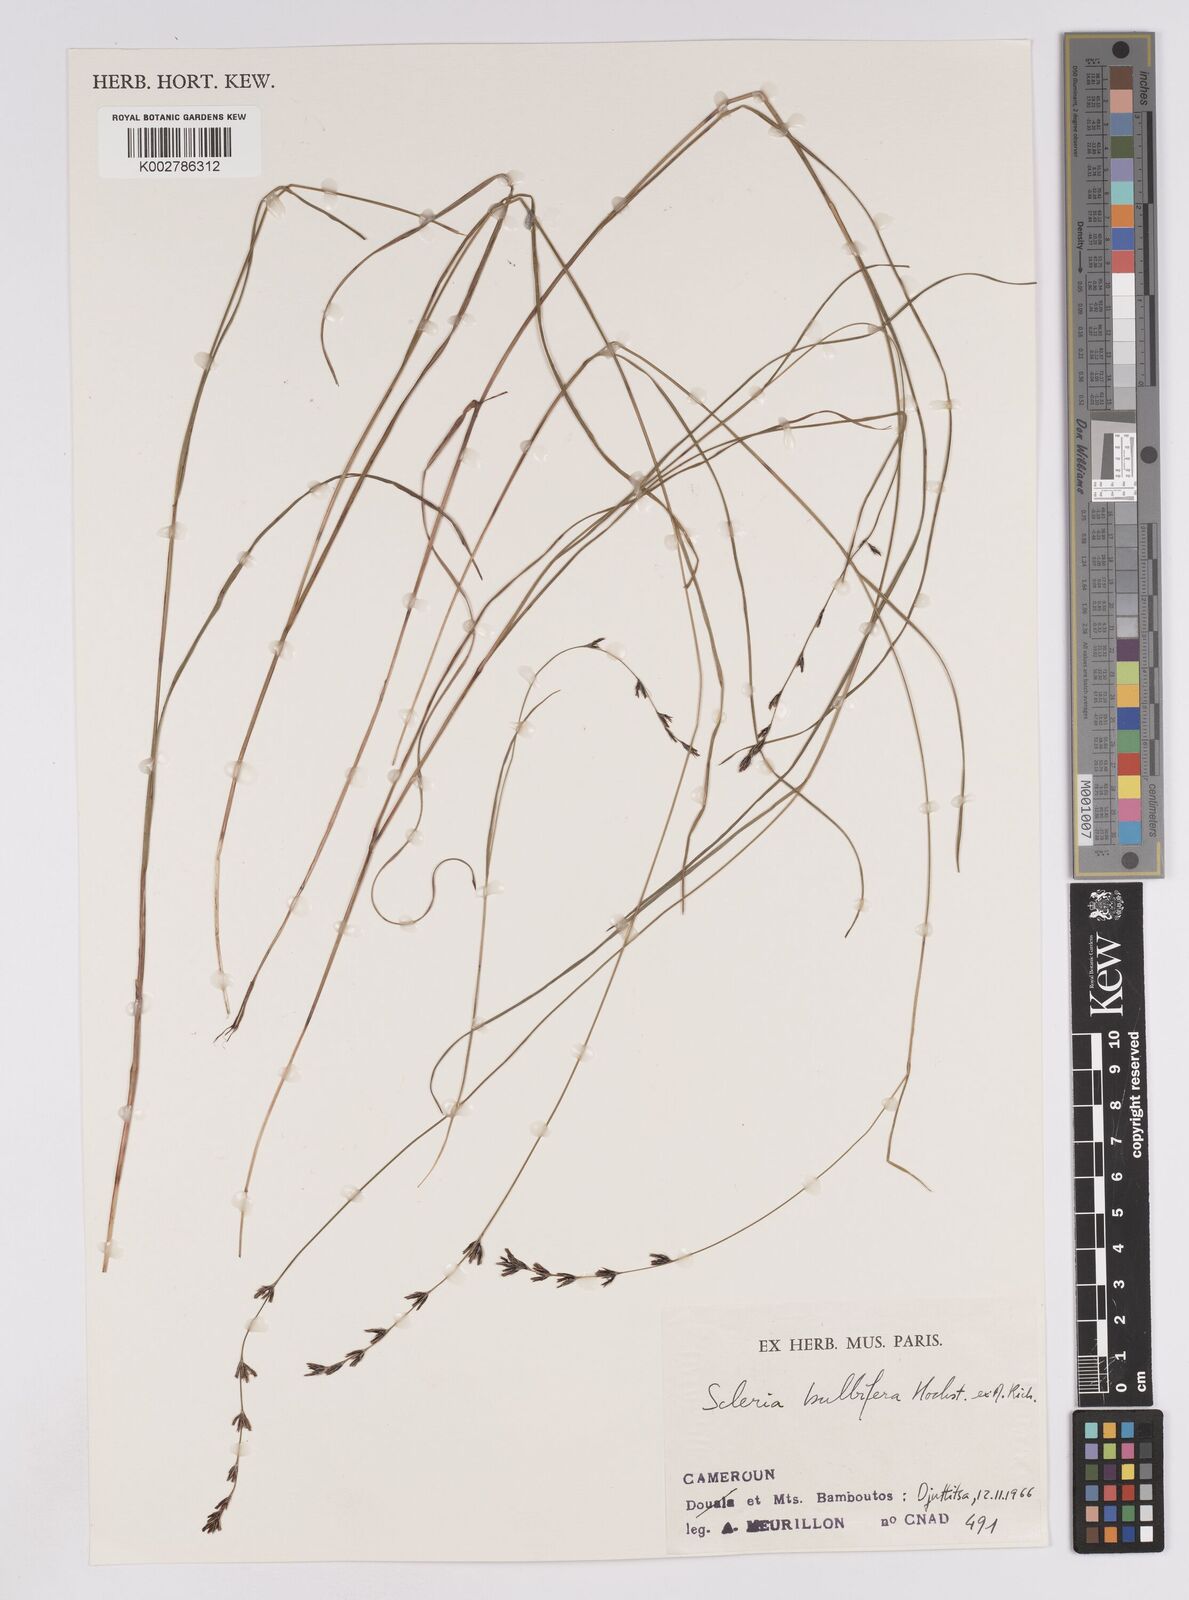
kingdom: Plantae
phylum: Tracheophyta
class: Liliopsida
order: Poales
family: Cyperaceae
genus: Scleria
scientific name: Scleria bulbifera
